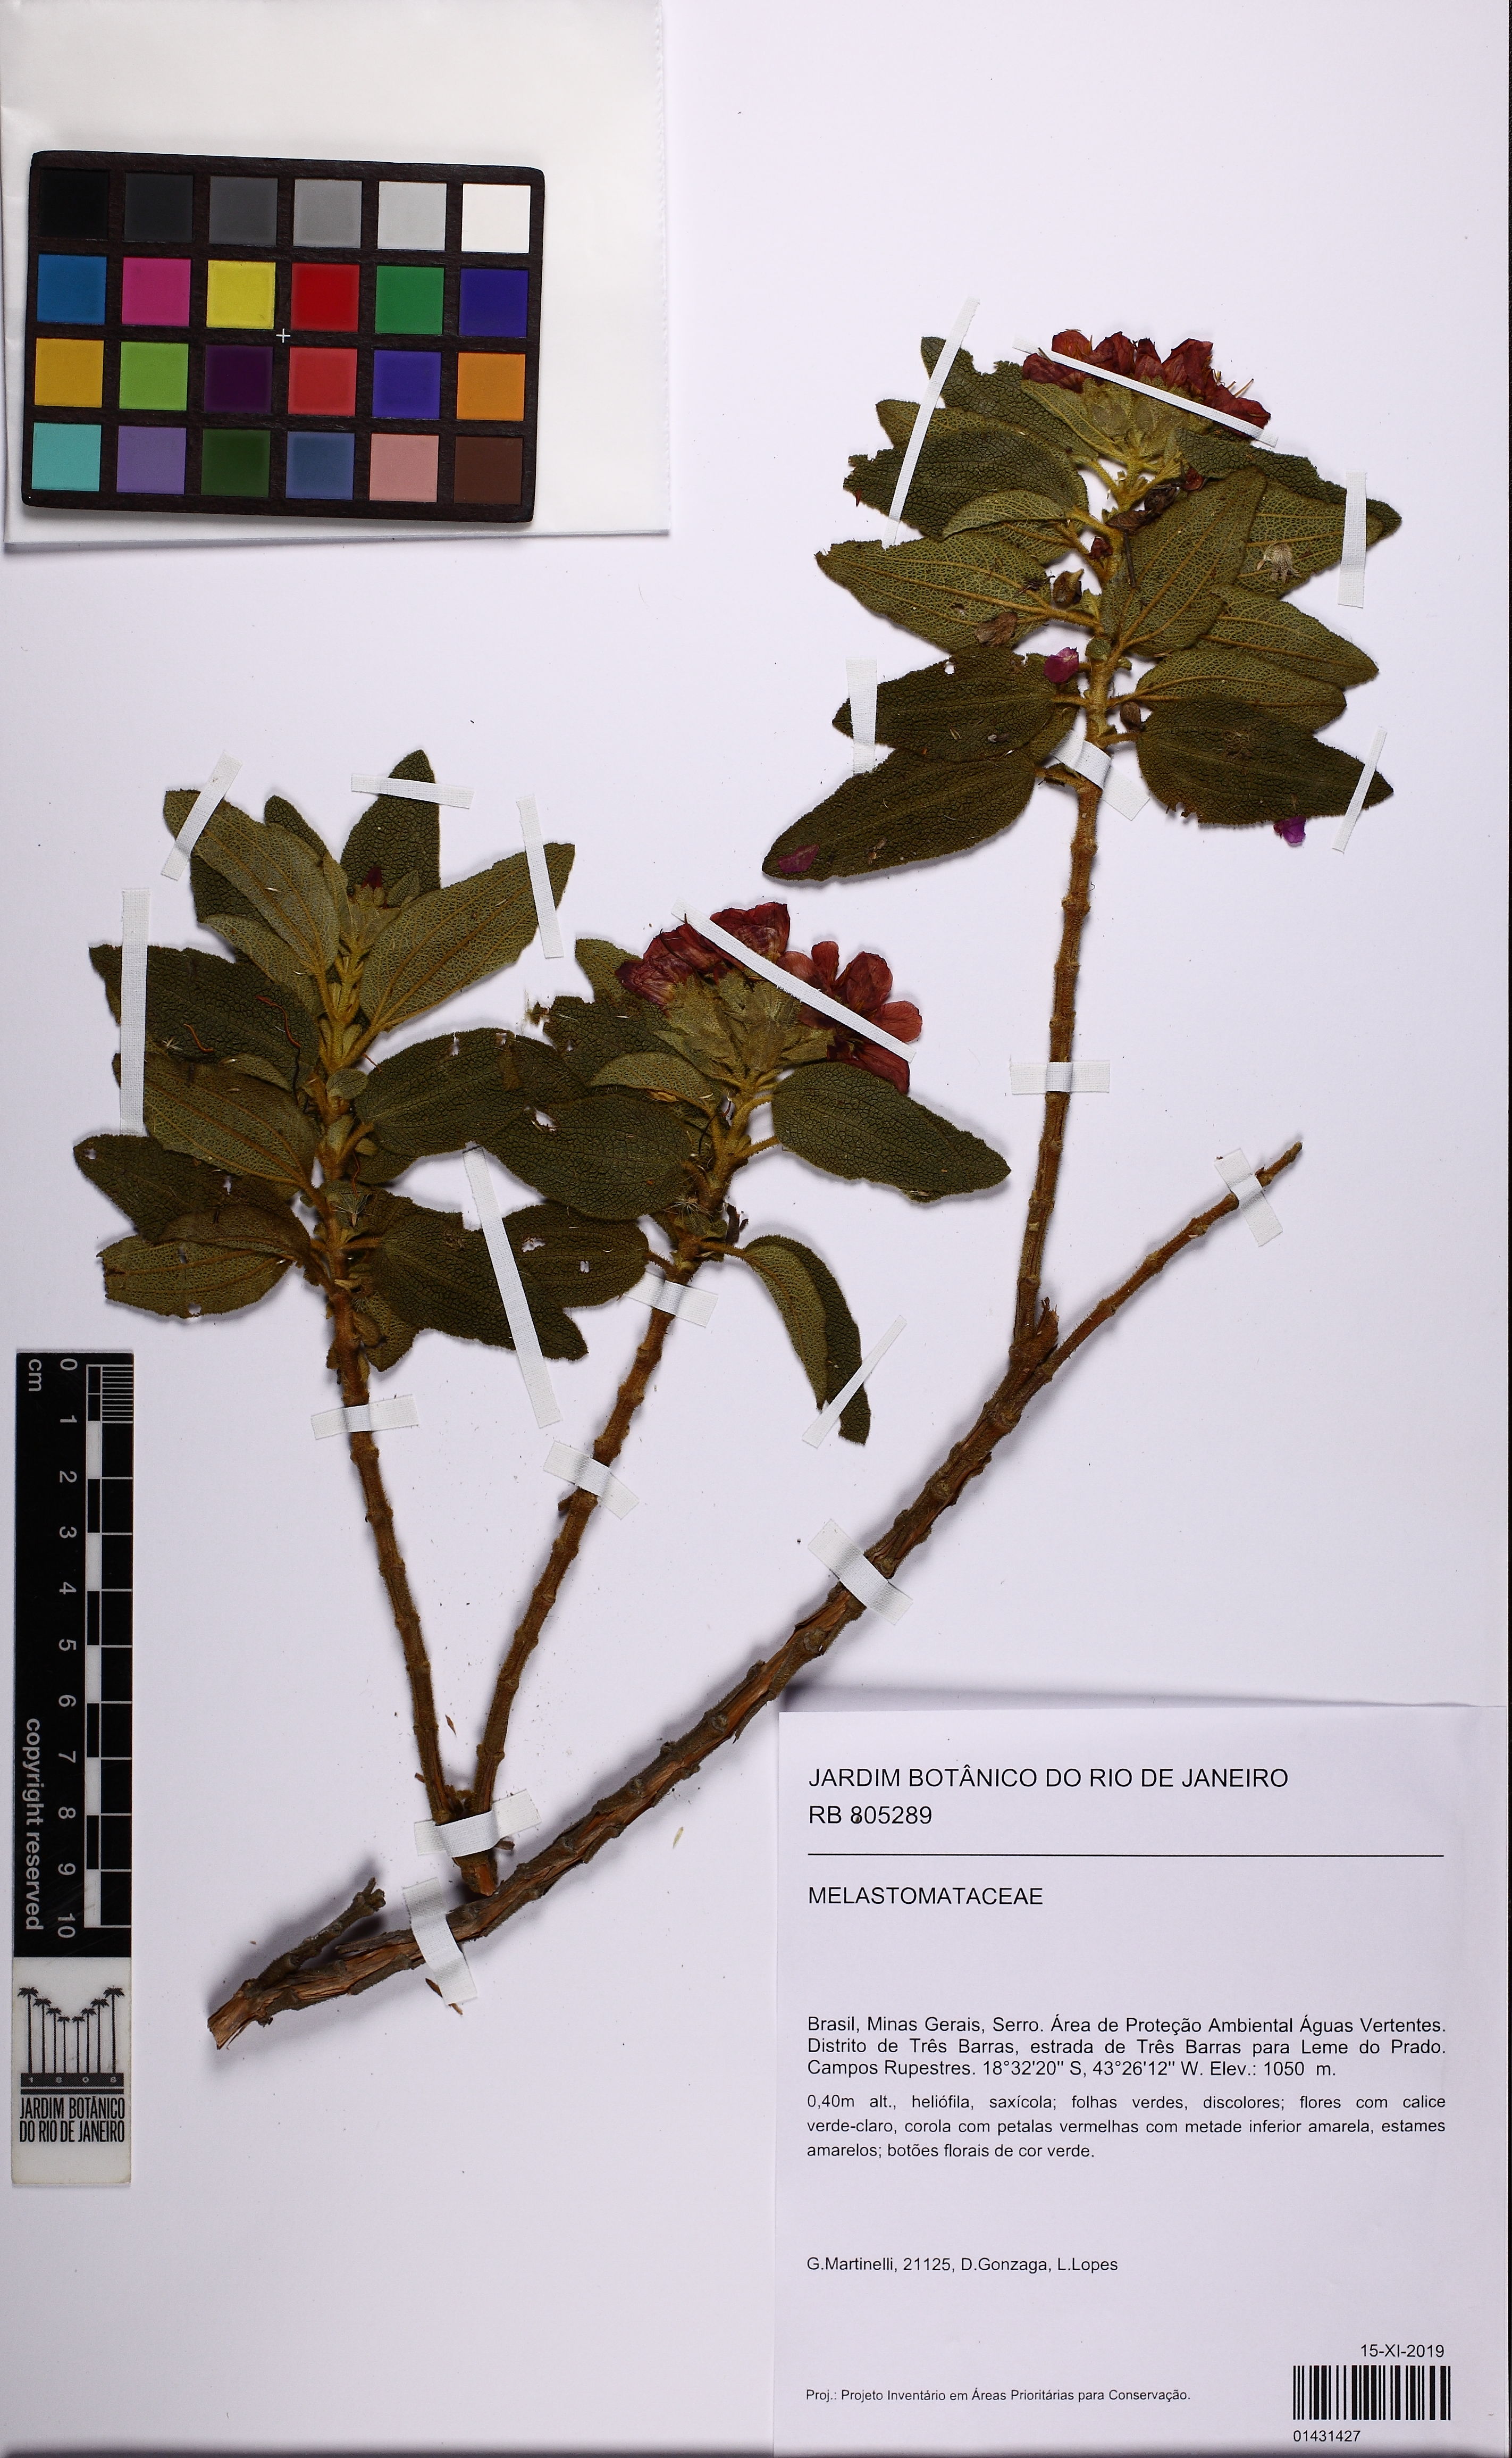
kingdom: Plantae
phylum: Tracheophyta
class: Magnoliopsida
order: Myrtales
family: Melastomataceae
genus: Cambessedesia
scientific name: Cambessedesia salviifolia
